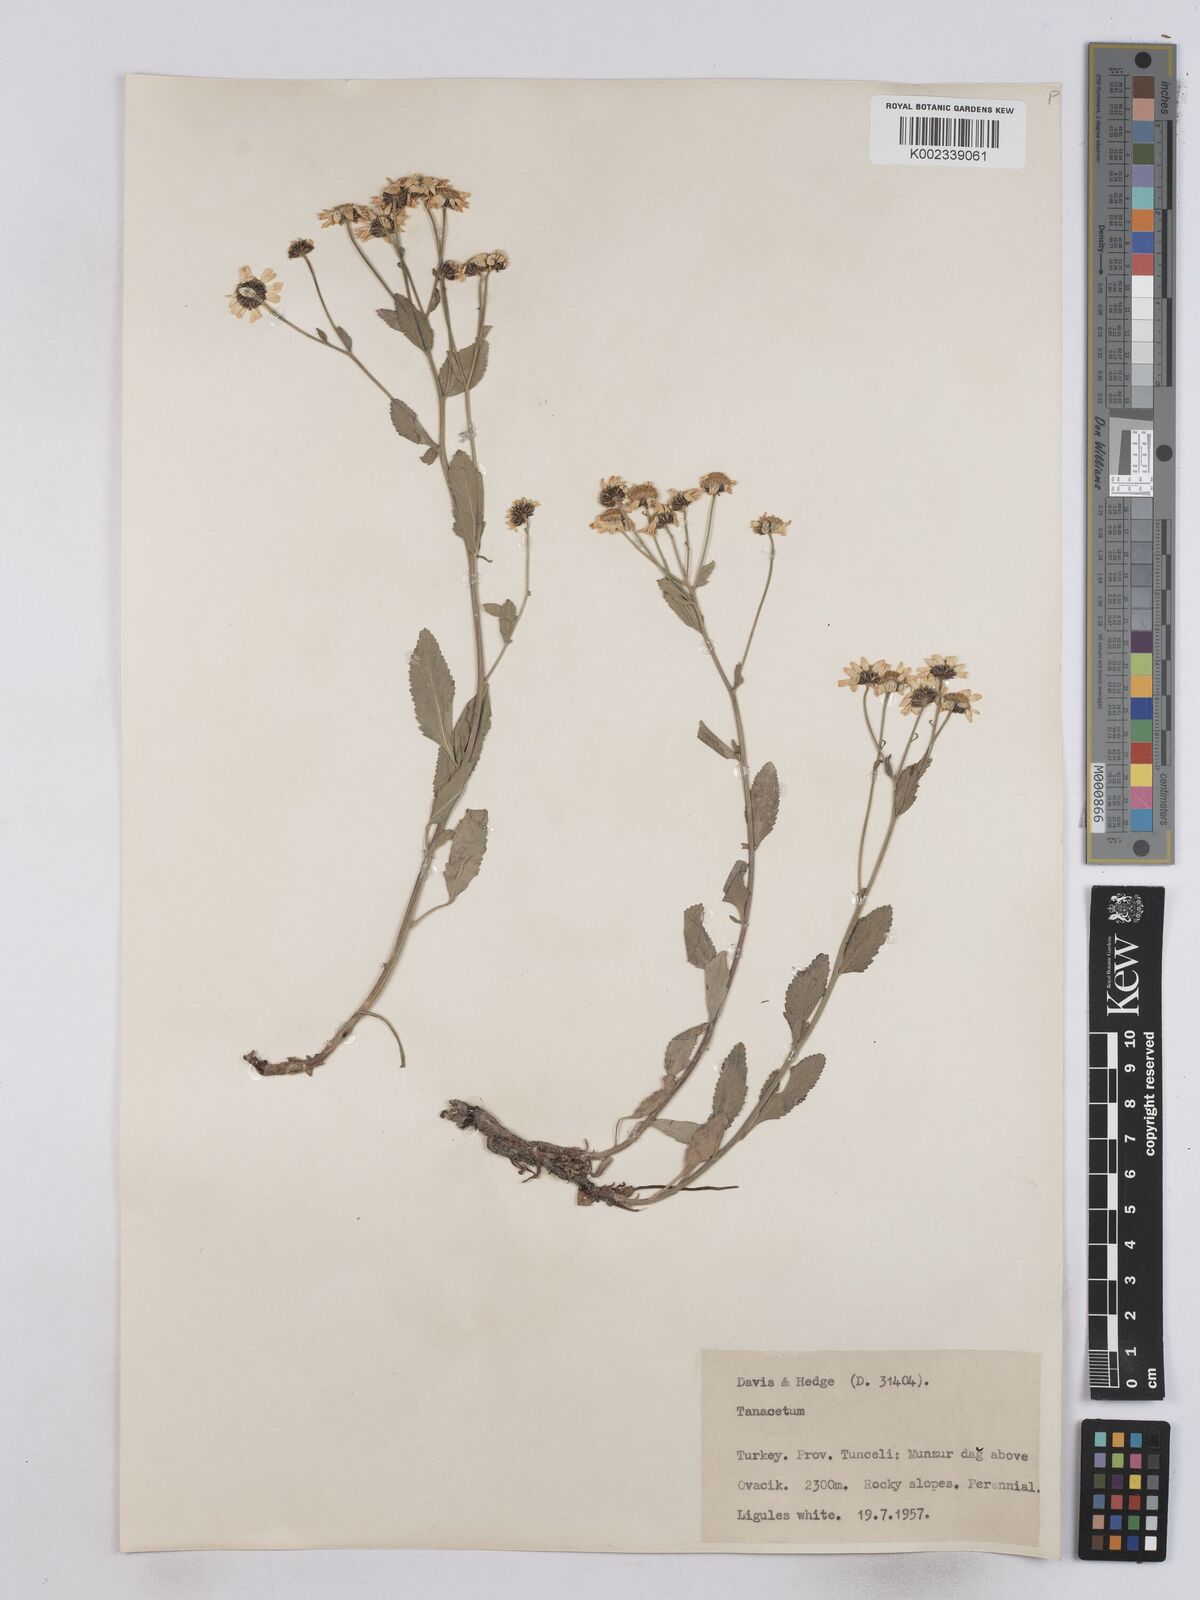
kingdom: Plantae
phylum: Tracheophyta
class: Magnoliopsida
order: Asterales
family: Asteraceae
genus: Tanacetum
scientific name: Tanacetum balsamita
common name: Costmary
